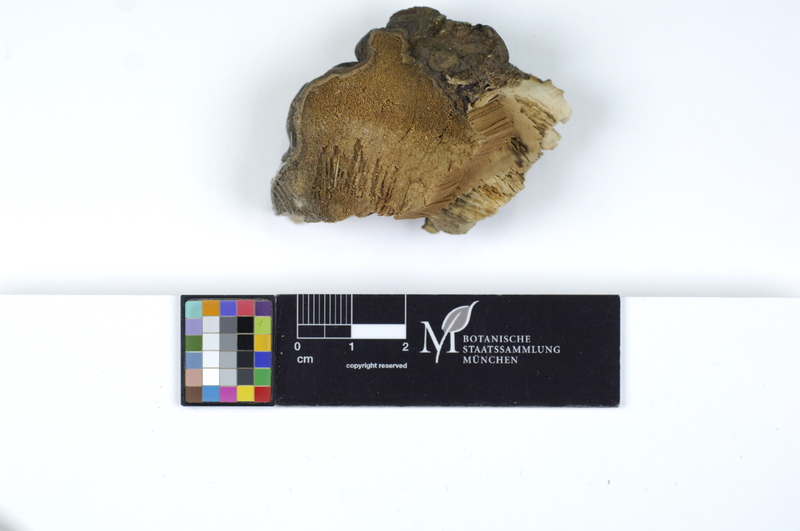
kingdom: Plantae
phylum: Tracheophyta
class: Pinopsida
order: Pinales
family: Pinaceae
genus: Larix
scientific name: Larix
